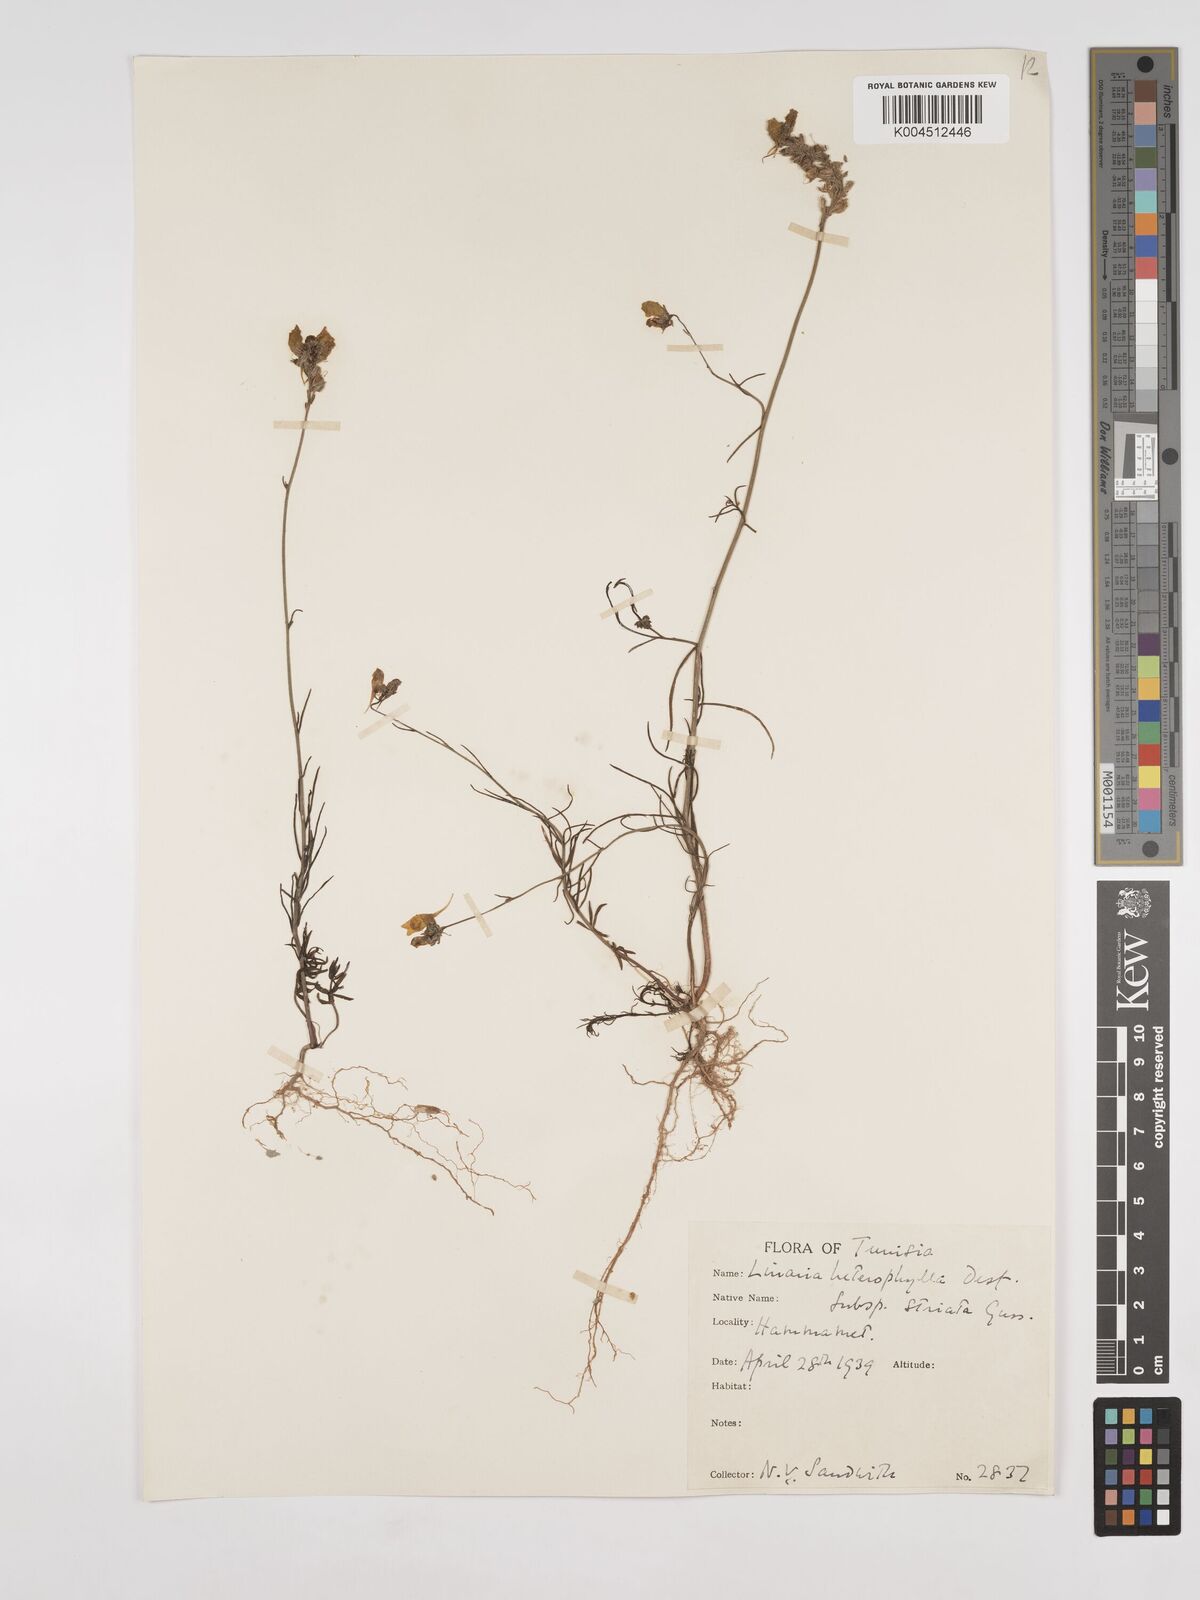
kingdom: Plantae
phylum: Tracheophyta
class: Magnoliopsida
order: Lamiales
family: Plantaginaceae
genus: Linaria
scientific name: Linaria multicaulis
